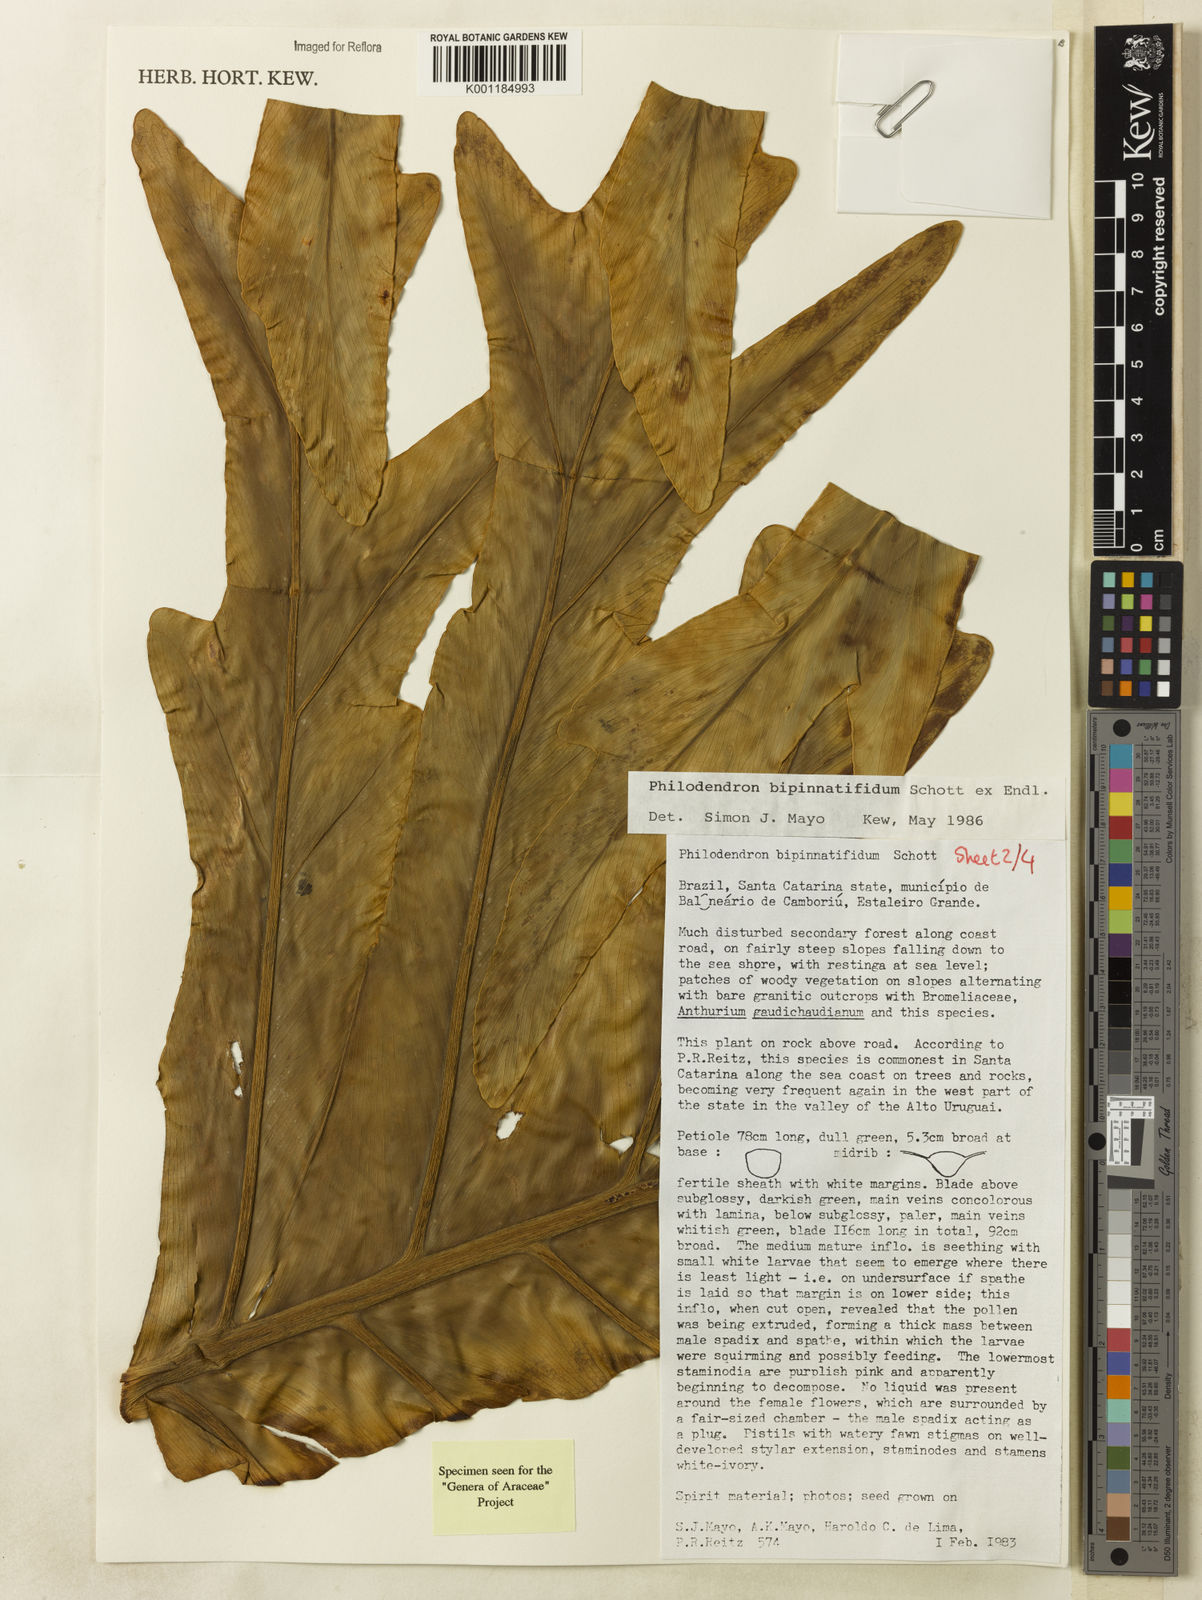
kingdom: Plantae
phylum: Tracheophyta
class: Liliopsida
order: Alismatales
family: Araceae
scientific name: Araceae
